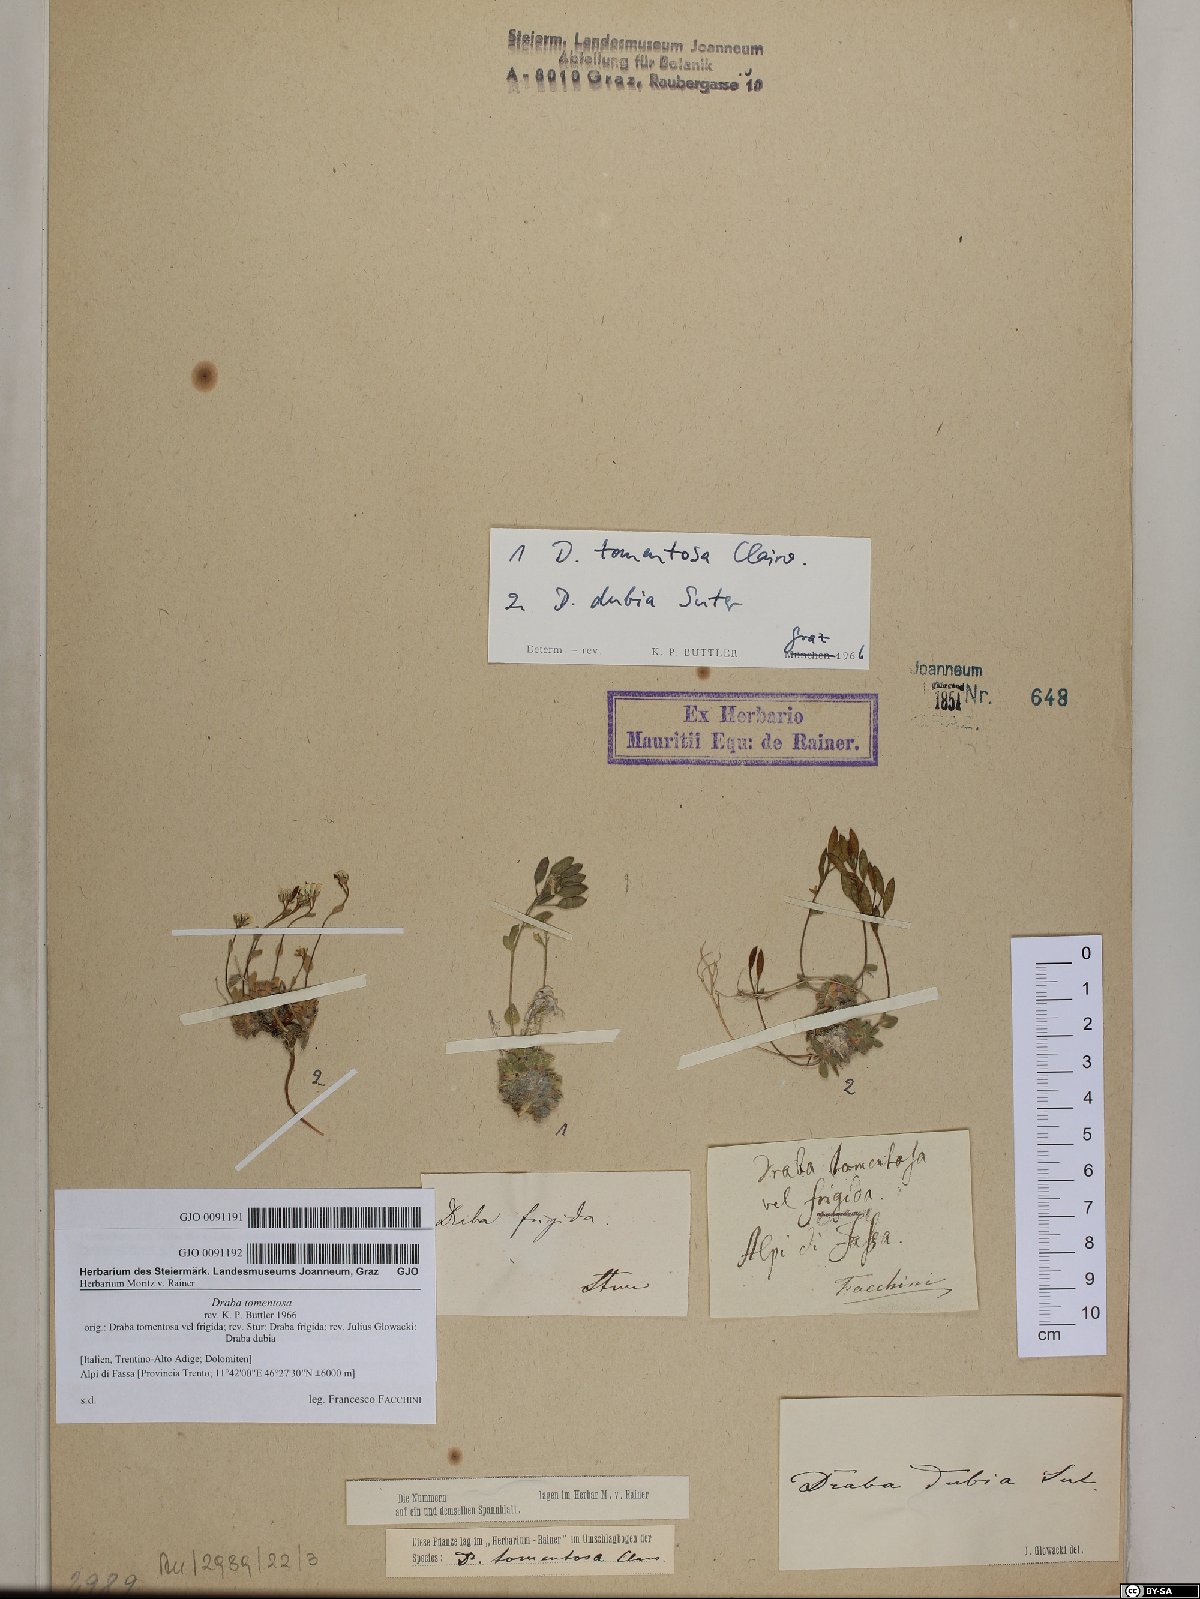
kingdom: Plantae
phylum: Tracheophyta
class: Magnoliopsida
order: Brassicales
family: Brassicaceae
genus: Draba
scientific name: Draba dubia
